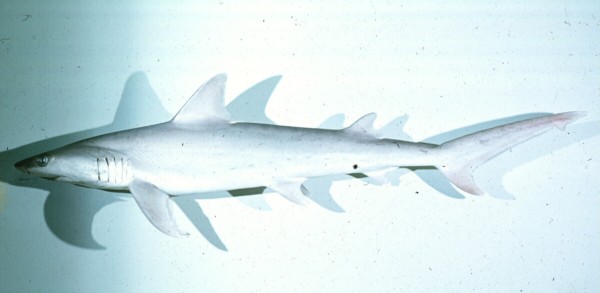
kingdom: Animalia
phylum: Chordata
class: Elasmobranchii
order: Carcharhiniformes
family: Hemigaleidae
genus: Hemipristis
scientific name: Hemipristis elongata
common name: Snaggletooth shark
